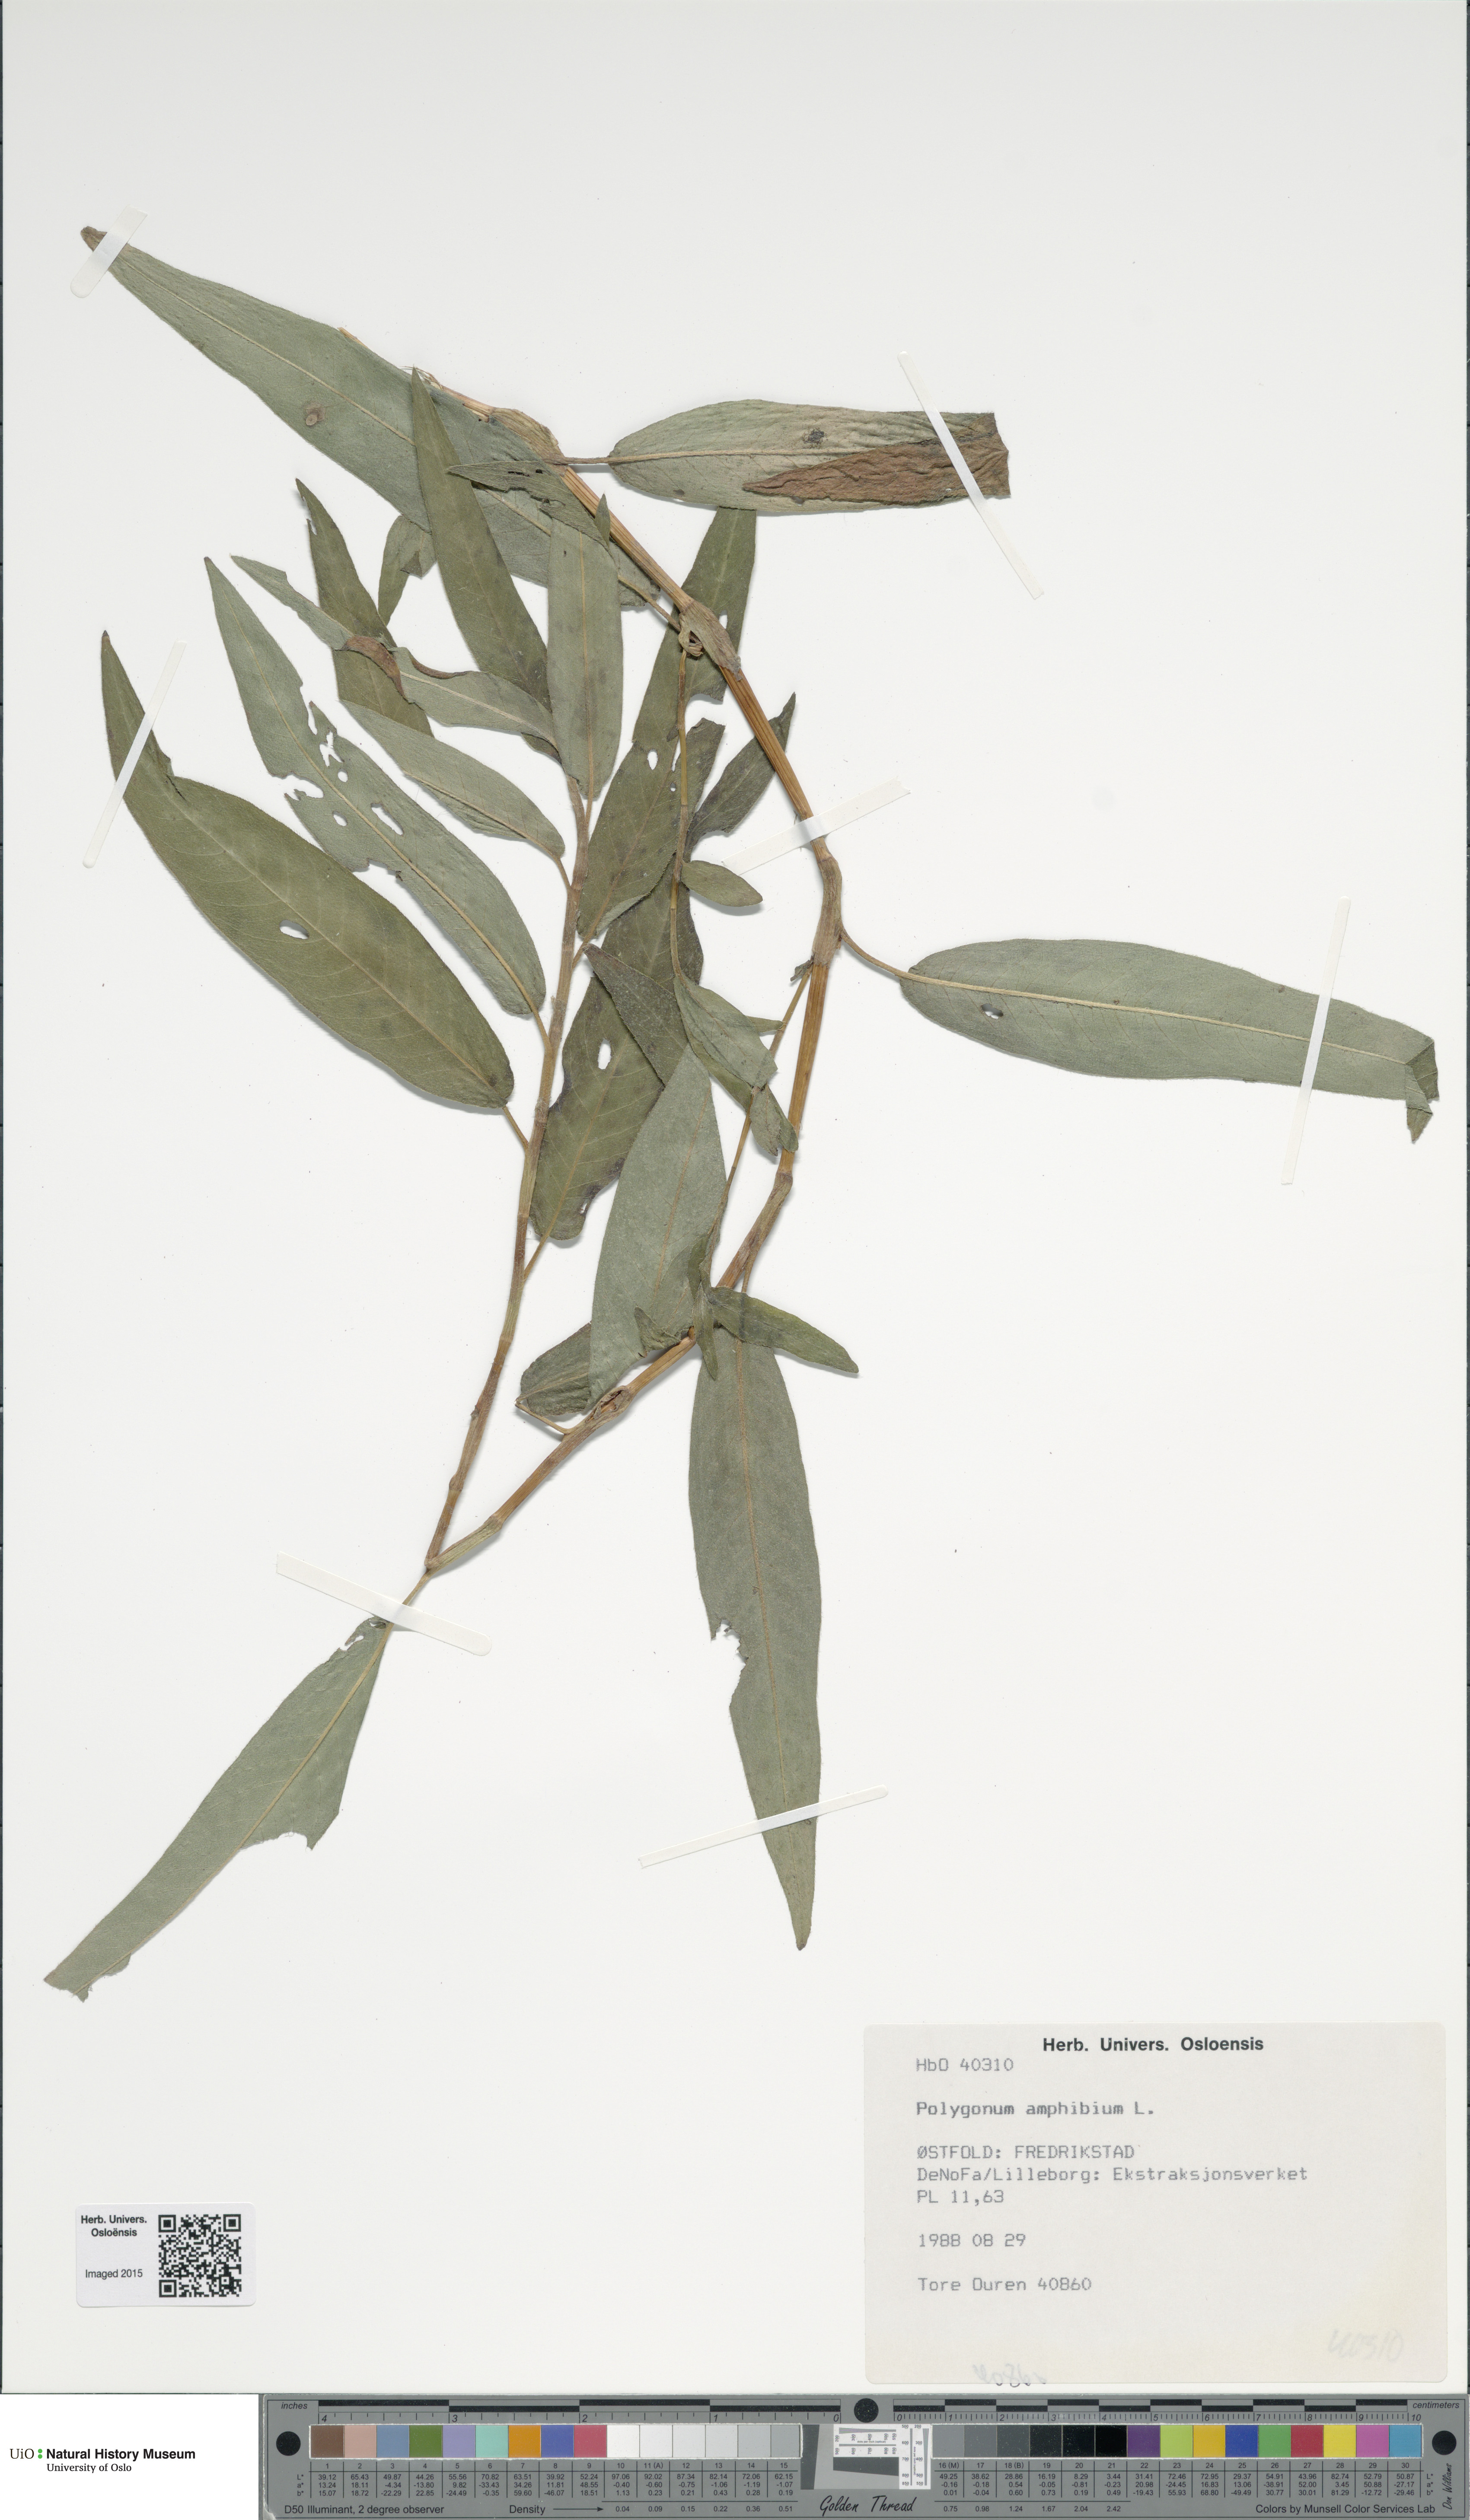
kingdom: Plantae
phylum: Tracheophyta
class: Magnoliopsida
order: Caryophyllales
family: Polygonaceae
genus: Persicaria
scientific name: Persicaria amphibia
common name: Amphibious bistort
